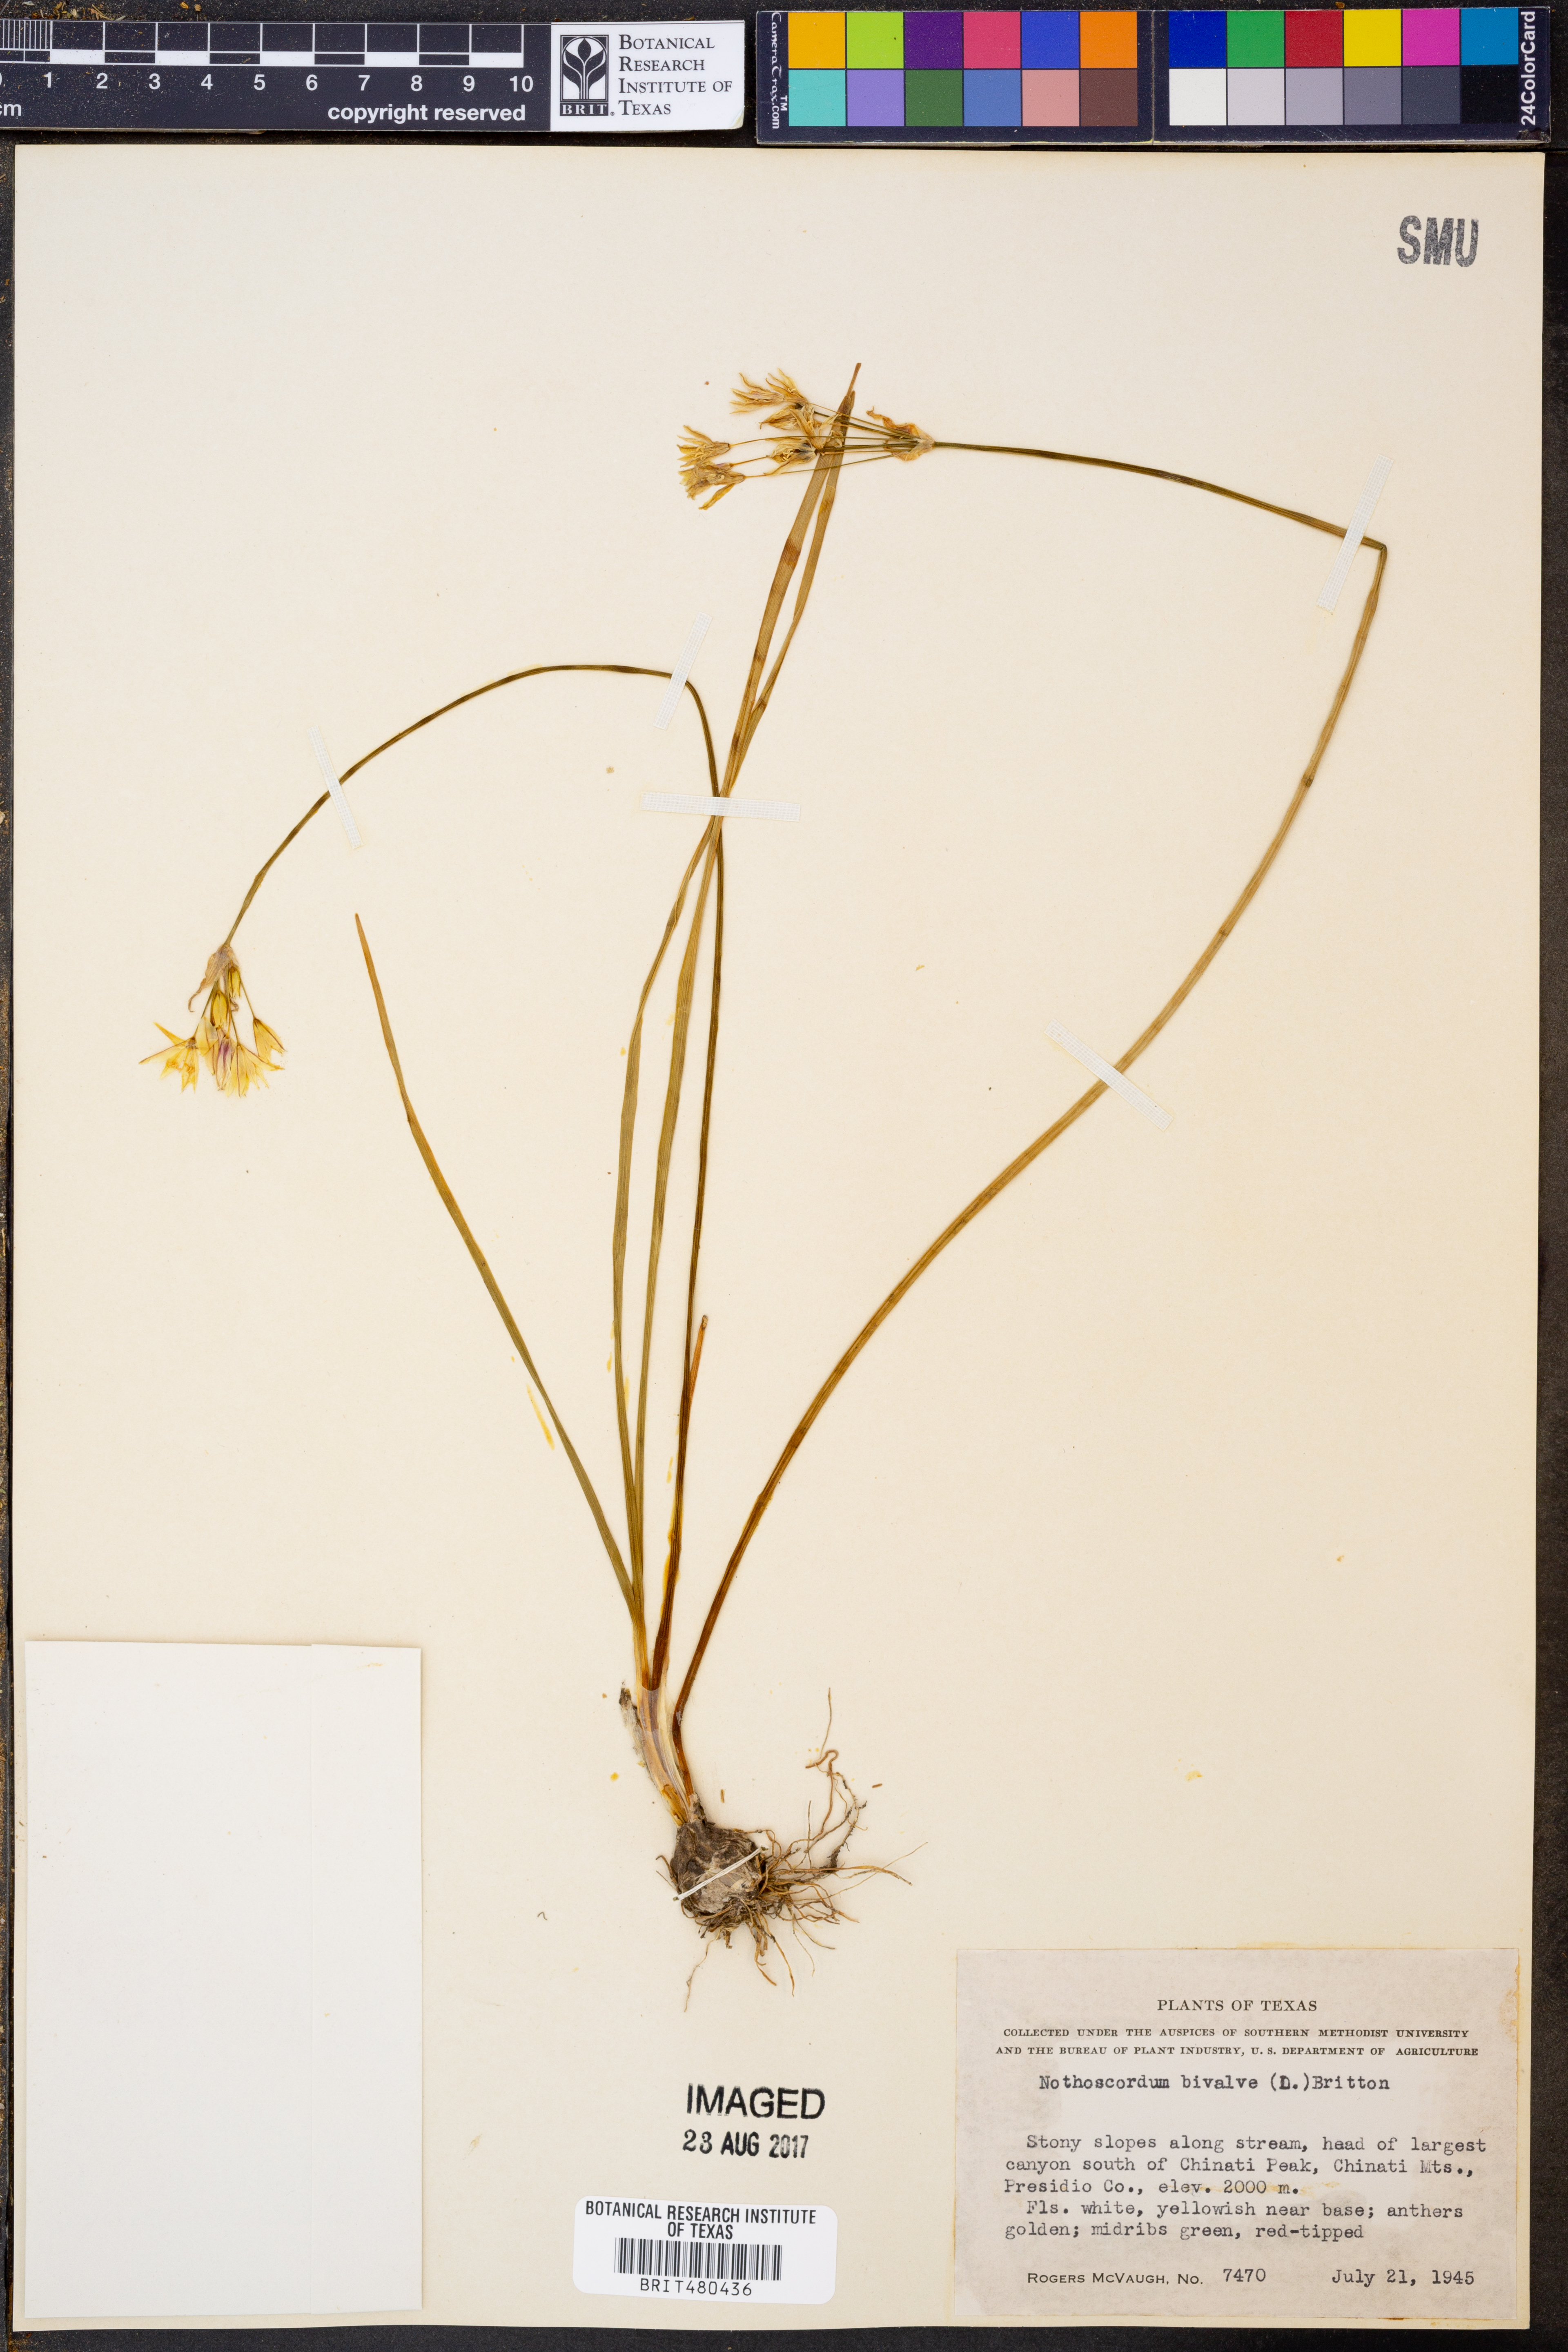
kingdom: Plantae
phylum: Tracheophyta
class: Liliopsida
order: Asparagales
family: Amaryllidaceae
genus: Nothoscordum
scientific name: Nothoscordum bivalve
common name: Crow-poison
